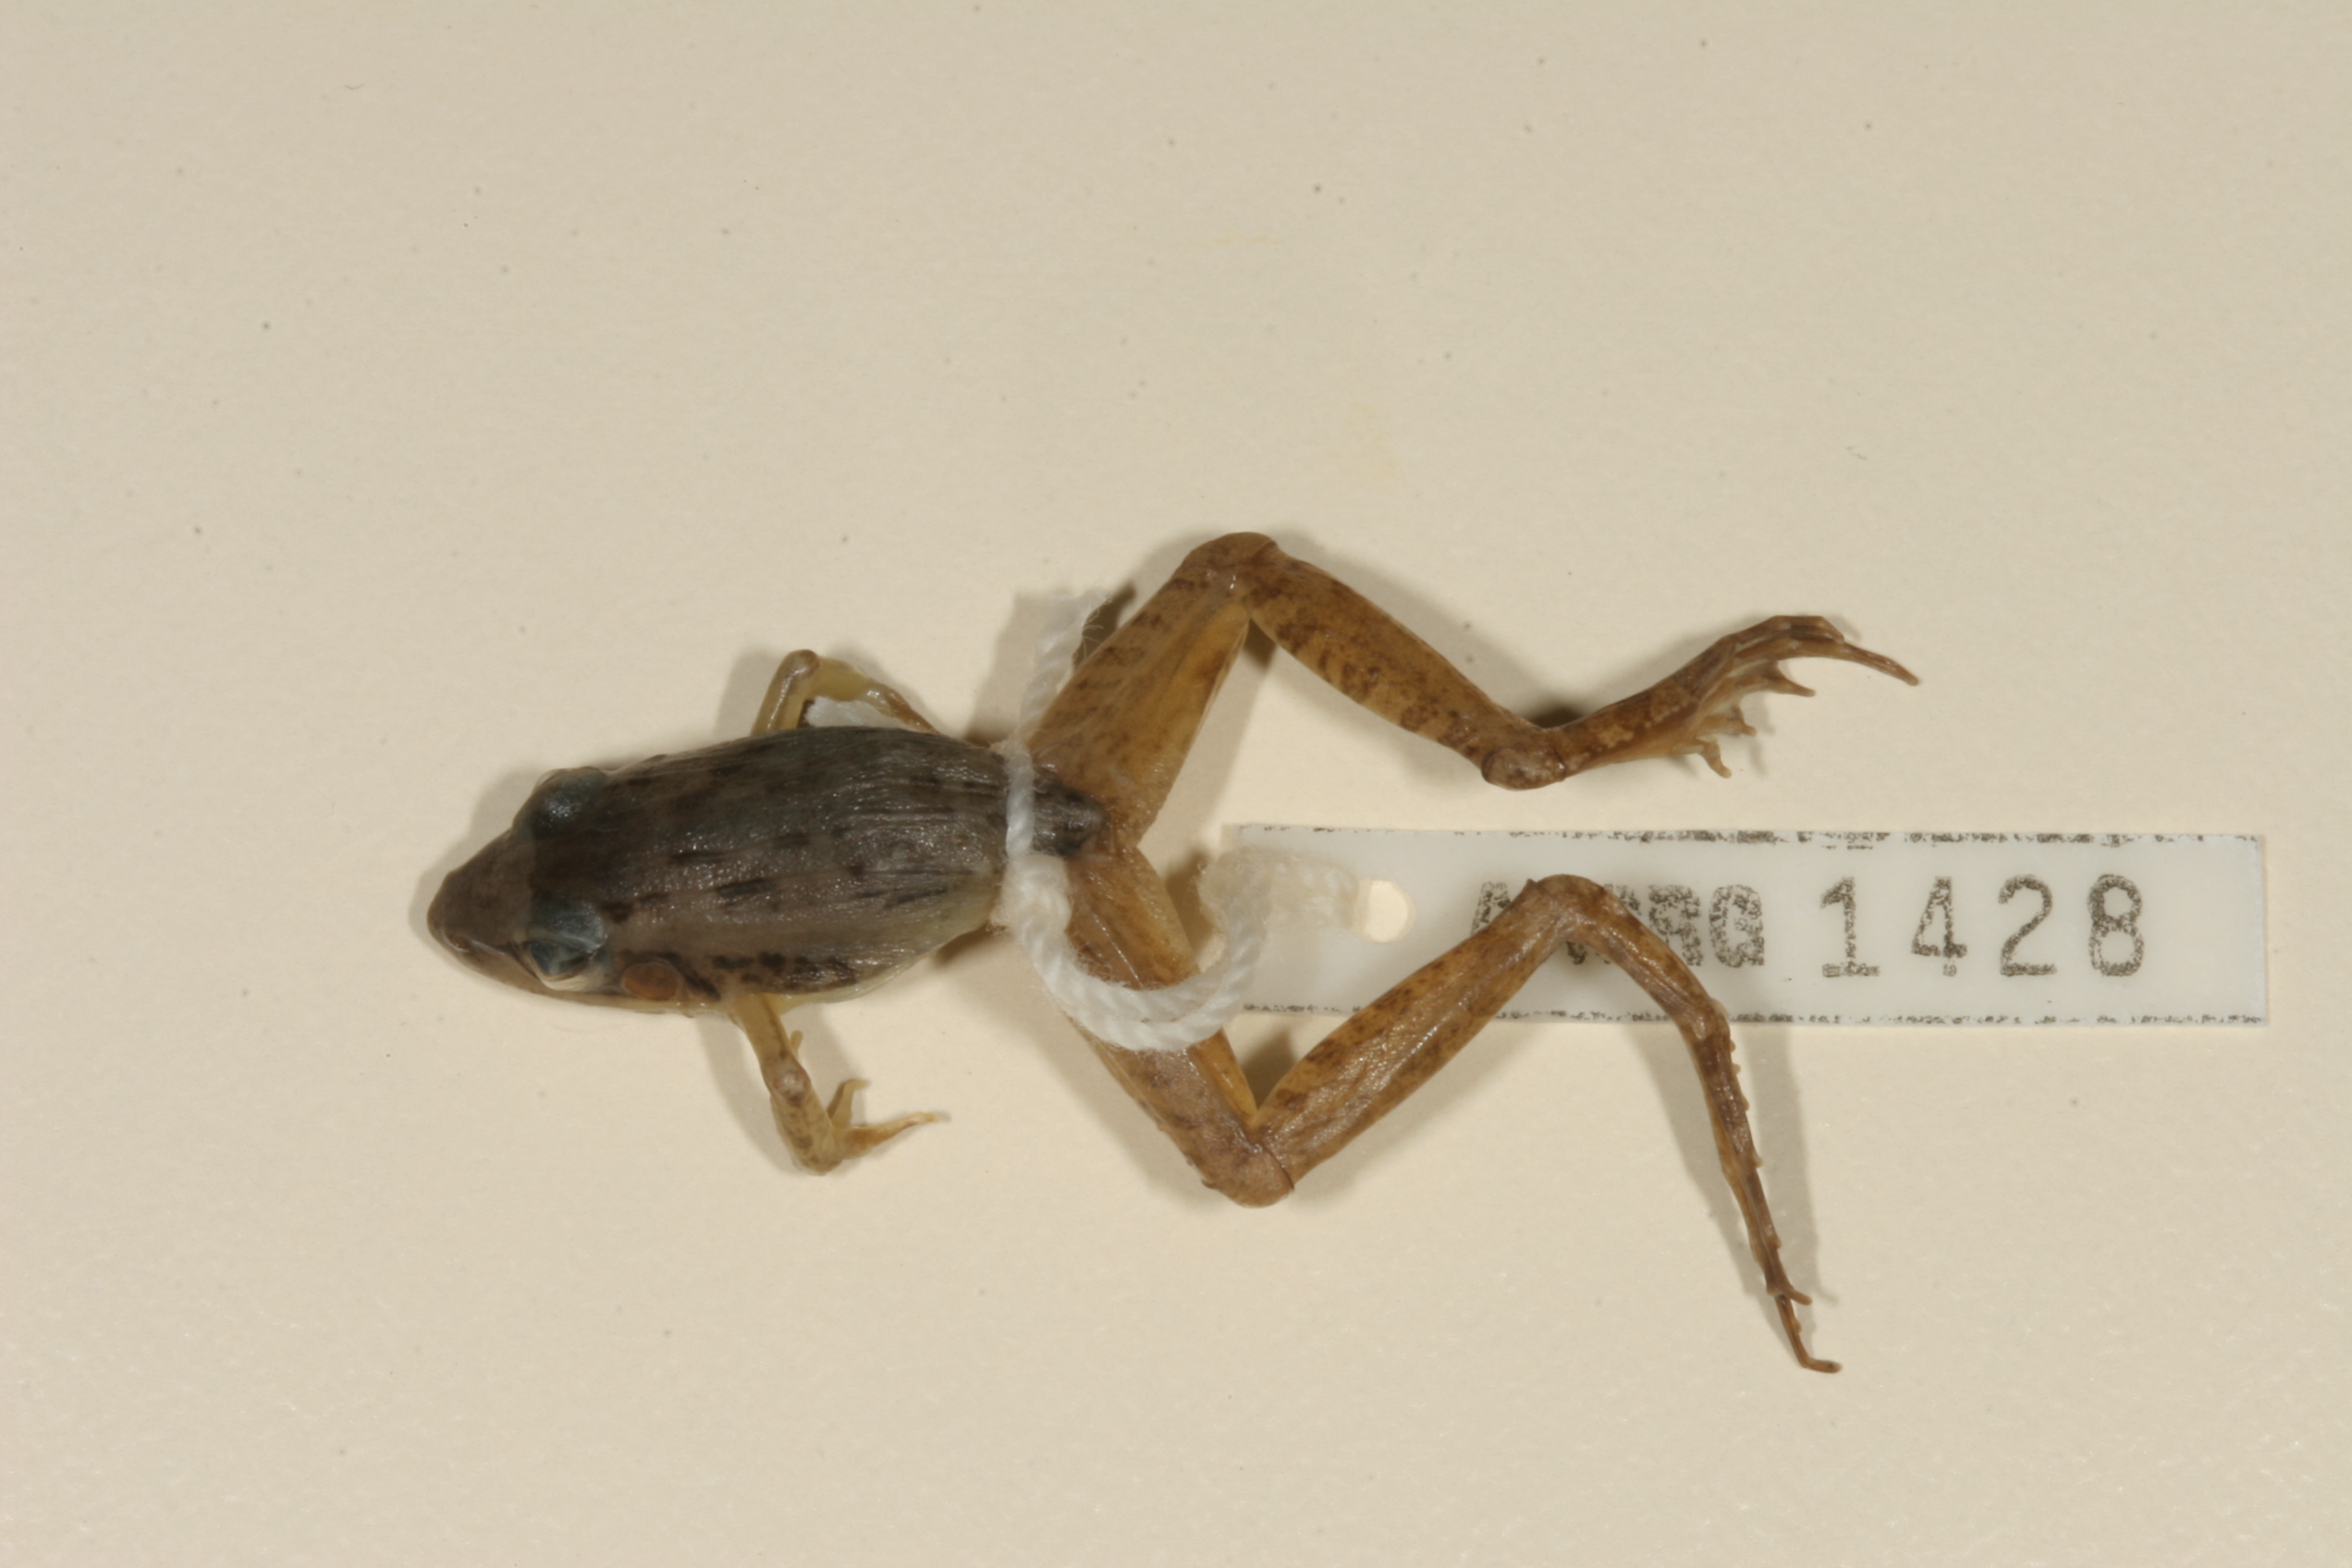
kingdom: Animalia
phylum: Chordata
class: Amphibia
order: Anura
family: Ptychadenidae
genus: Ptychadena
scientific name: Ptychadena anchietae
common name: Anchieta's ridged frog
